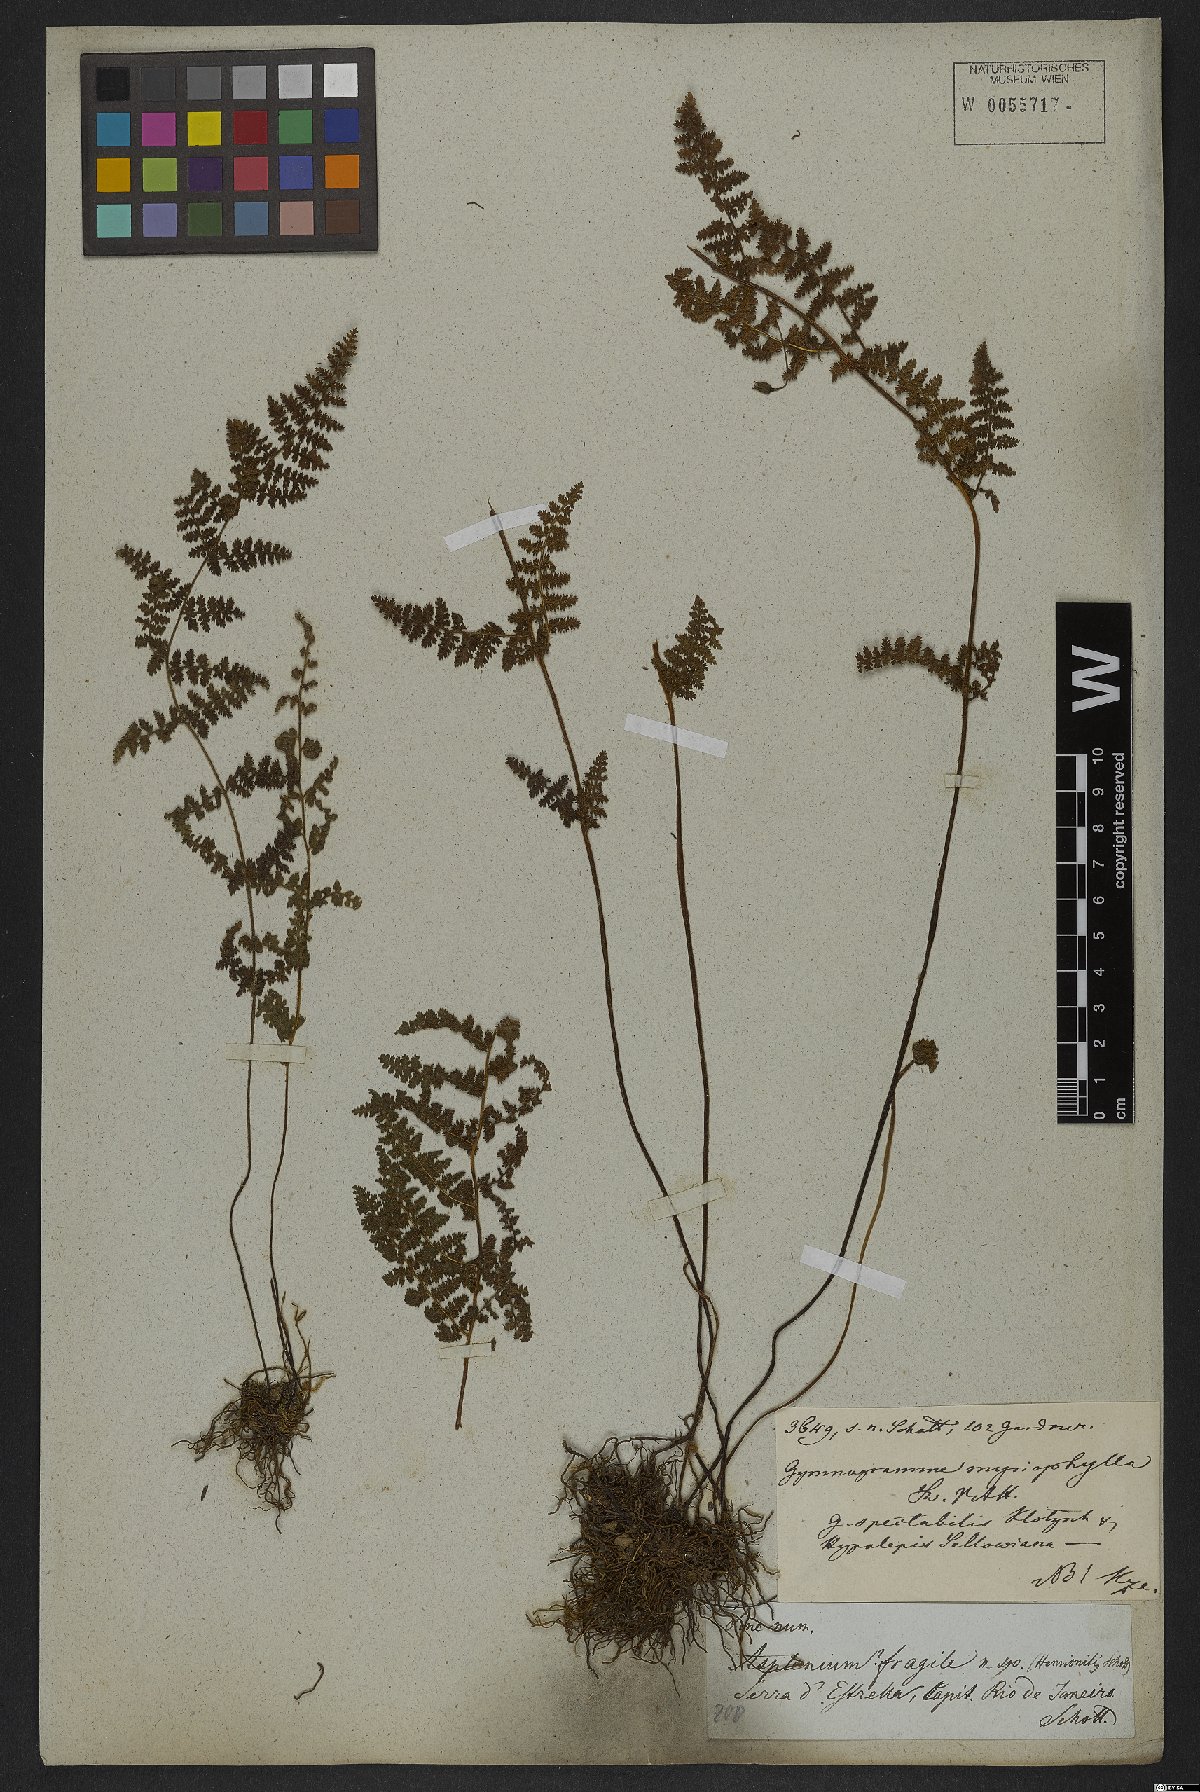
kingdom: Plantae
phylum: Tracheophyta
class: Polypodiopsida
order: Polypodiales
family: Pteridaceae
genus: Tryonia
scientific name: Tryonia myriophylla
